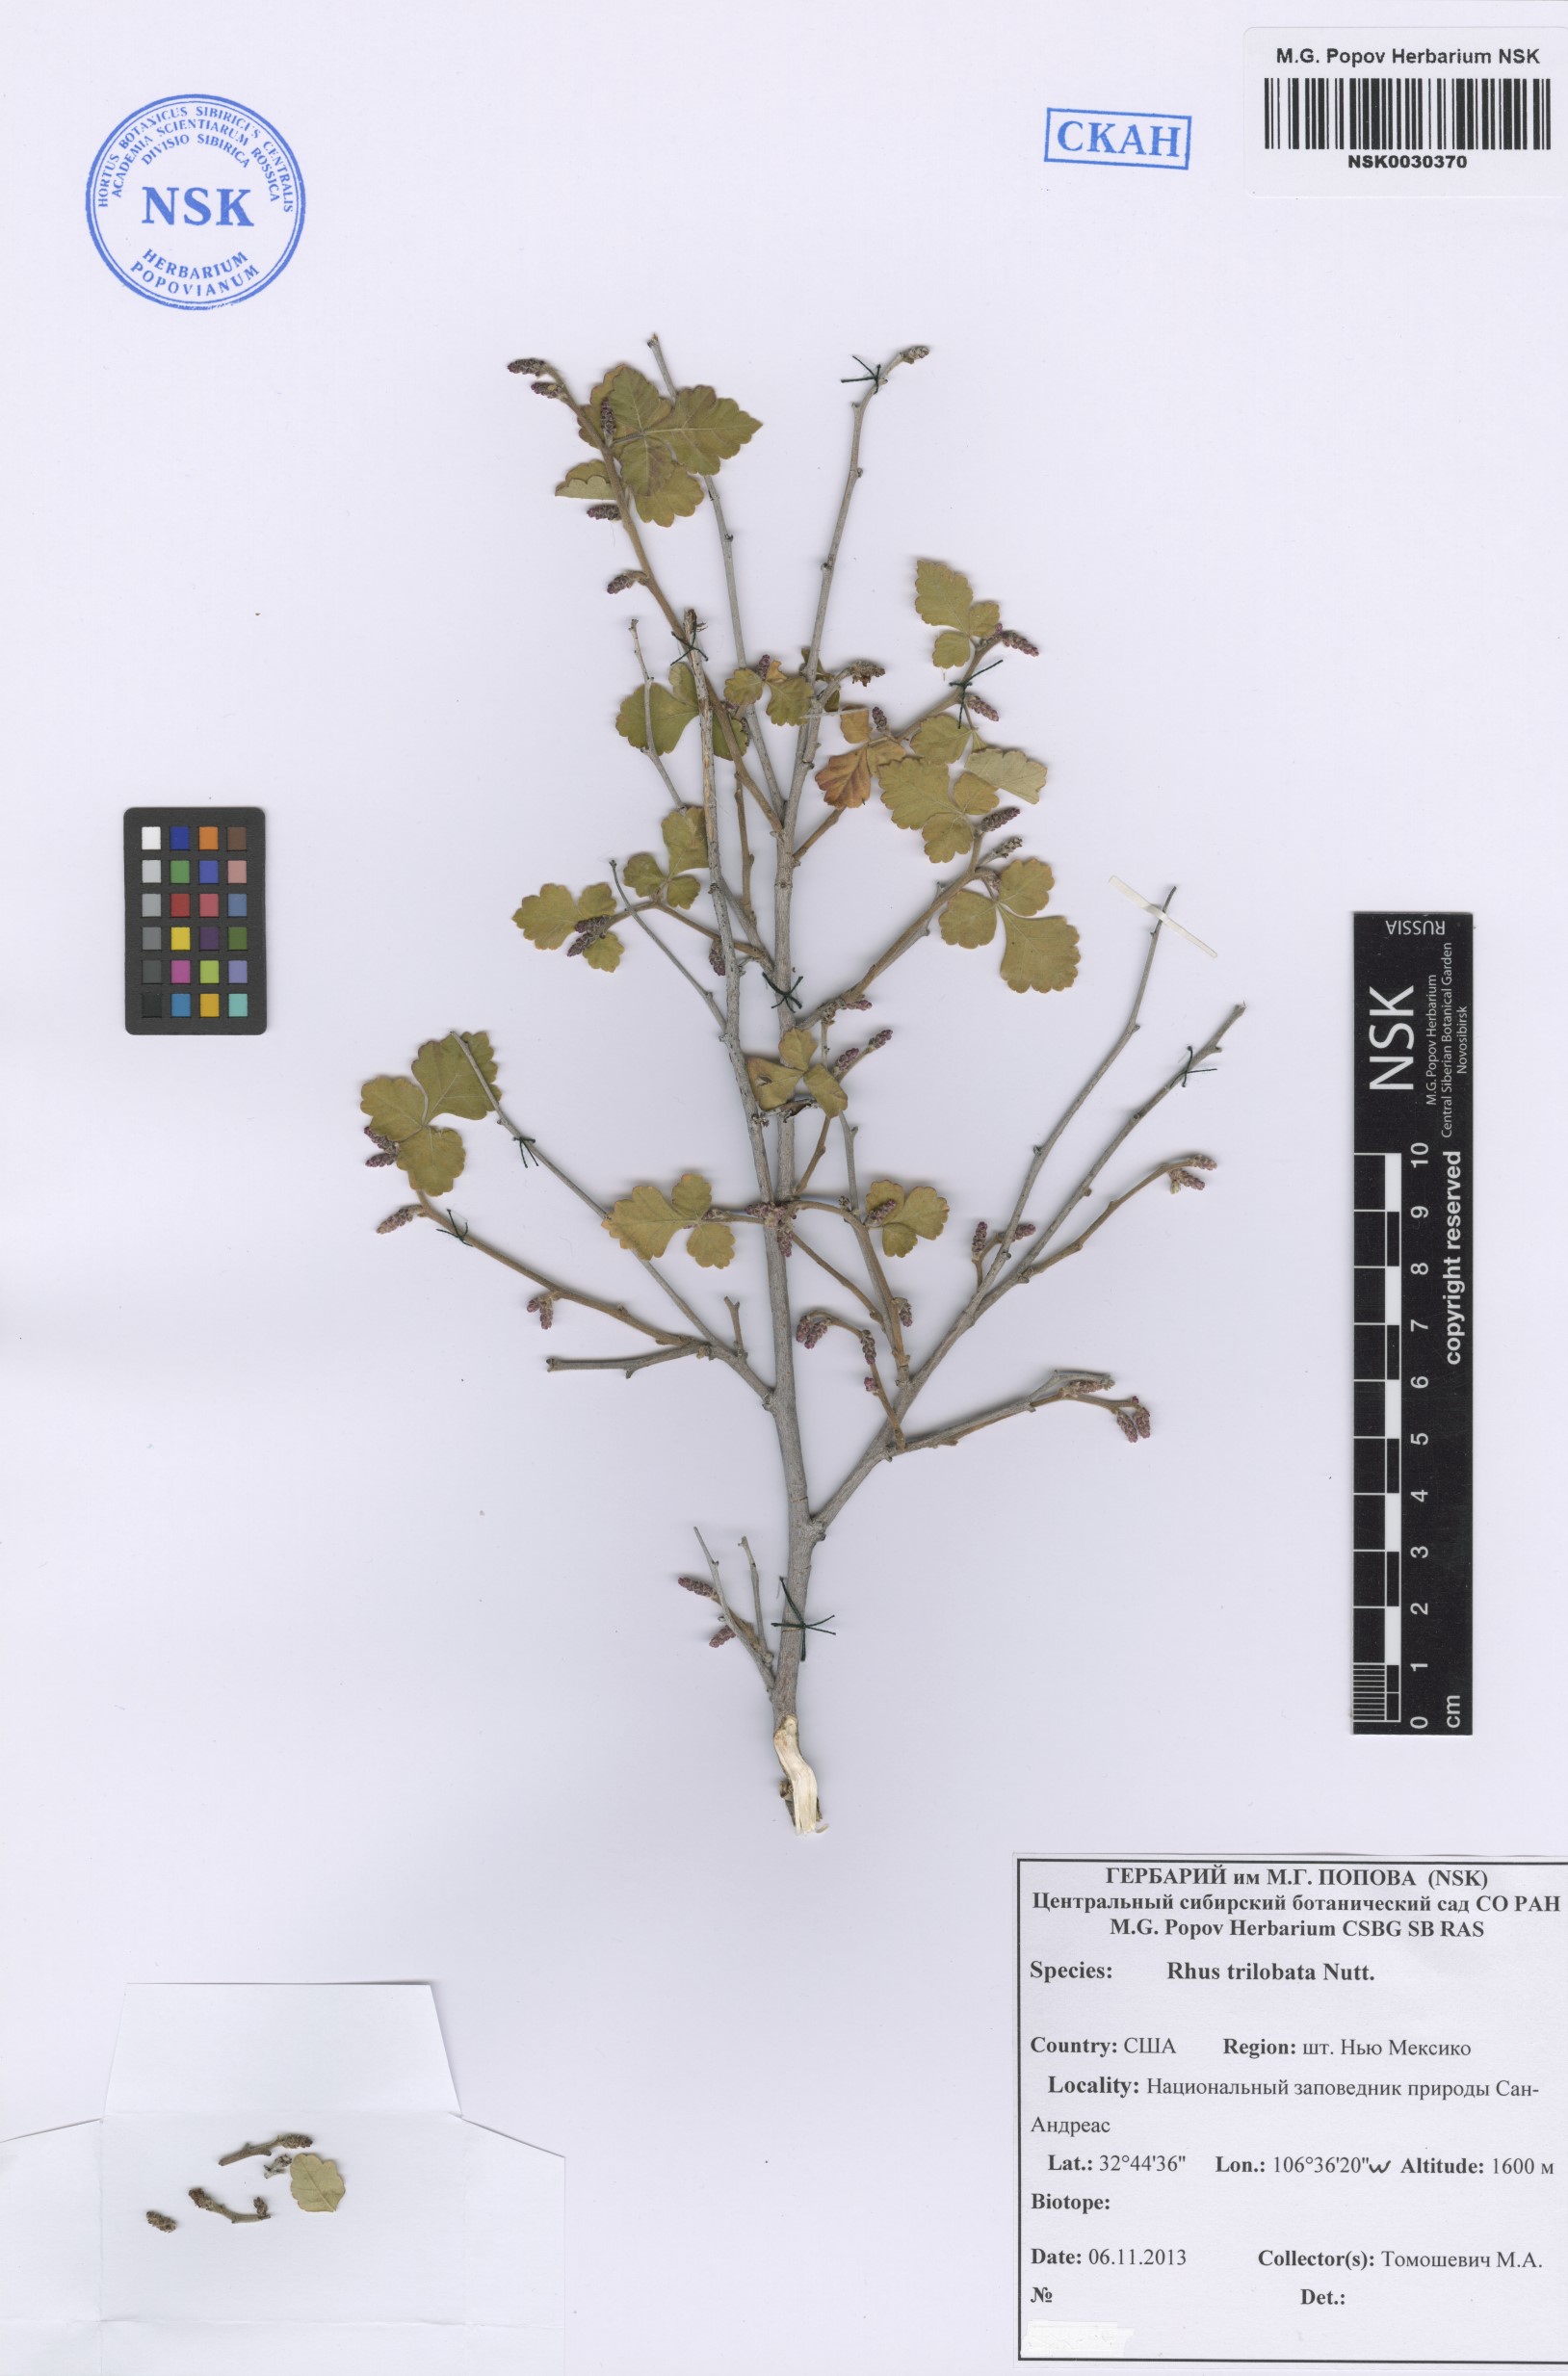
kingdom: Plantae
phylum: Tracheophyta
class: Magnoliopsida
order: Sapindales
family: Anacardiaceae
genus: Rhus
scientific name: Rhus trilobata
